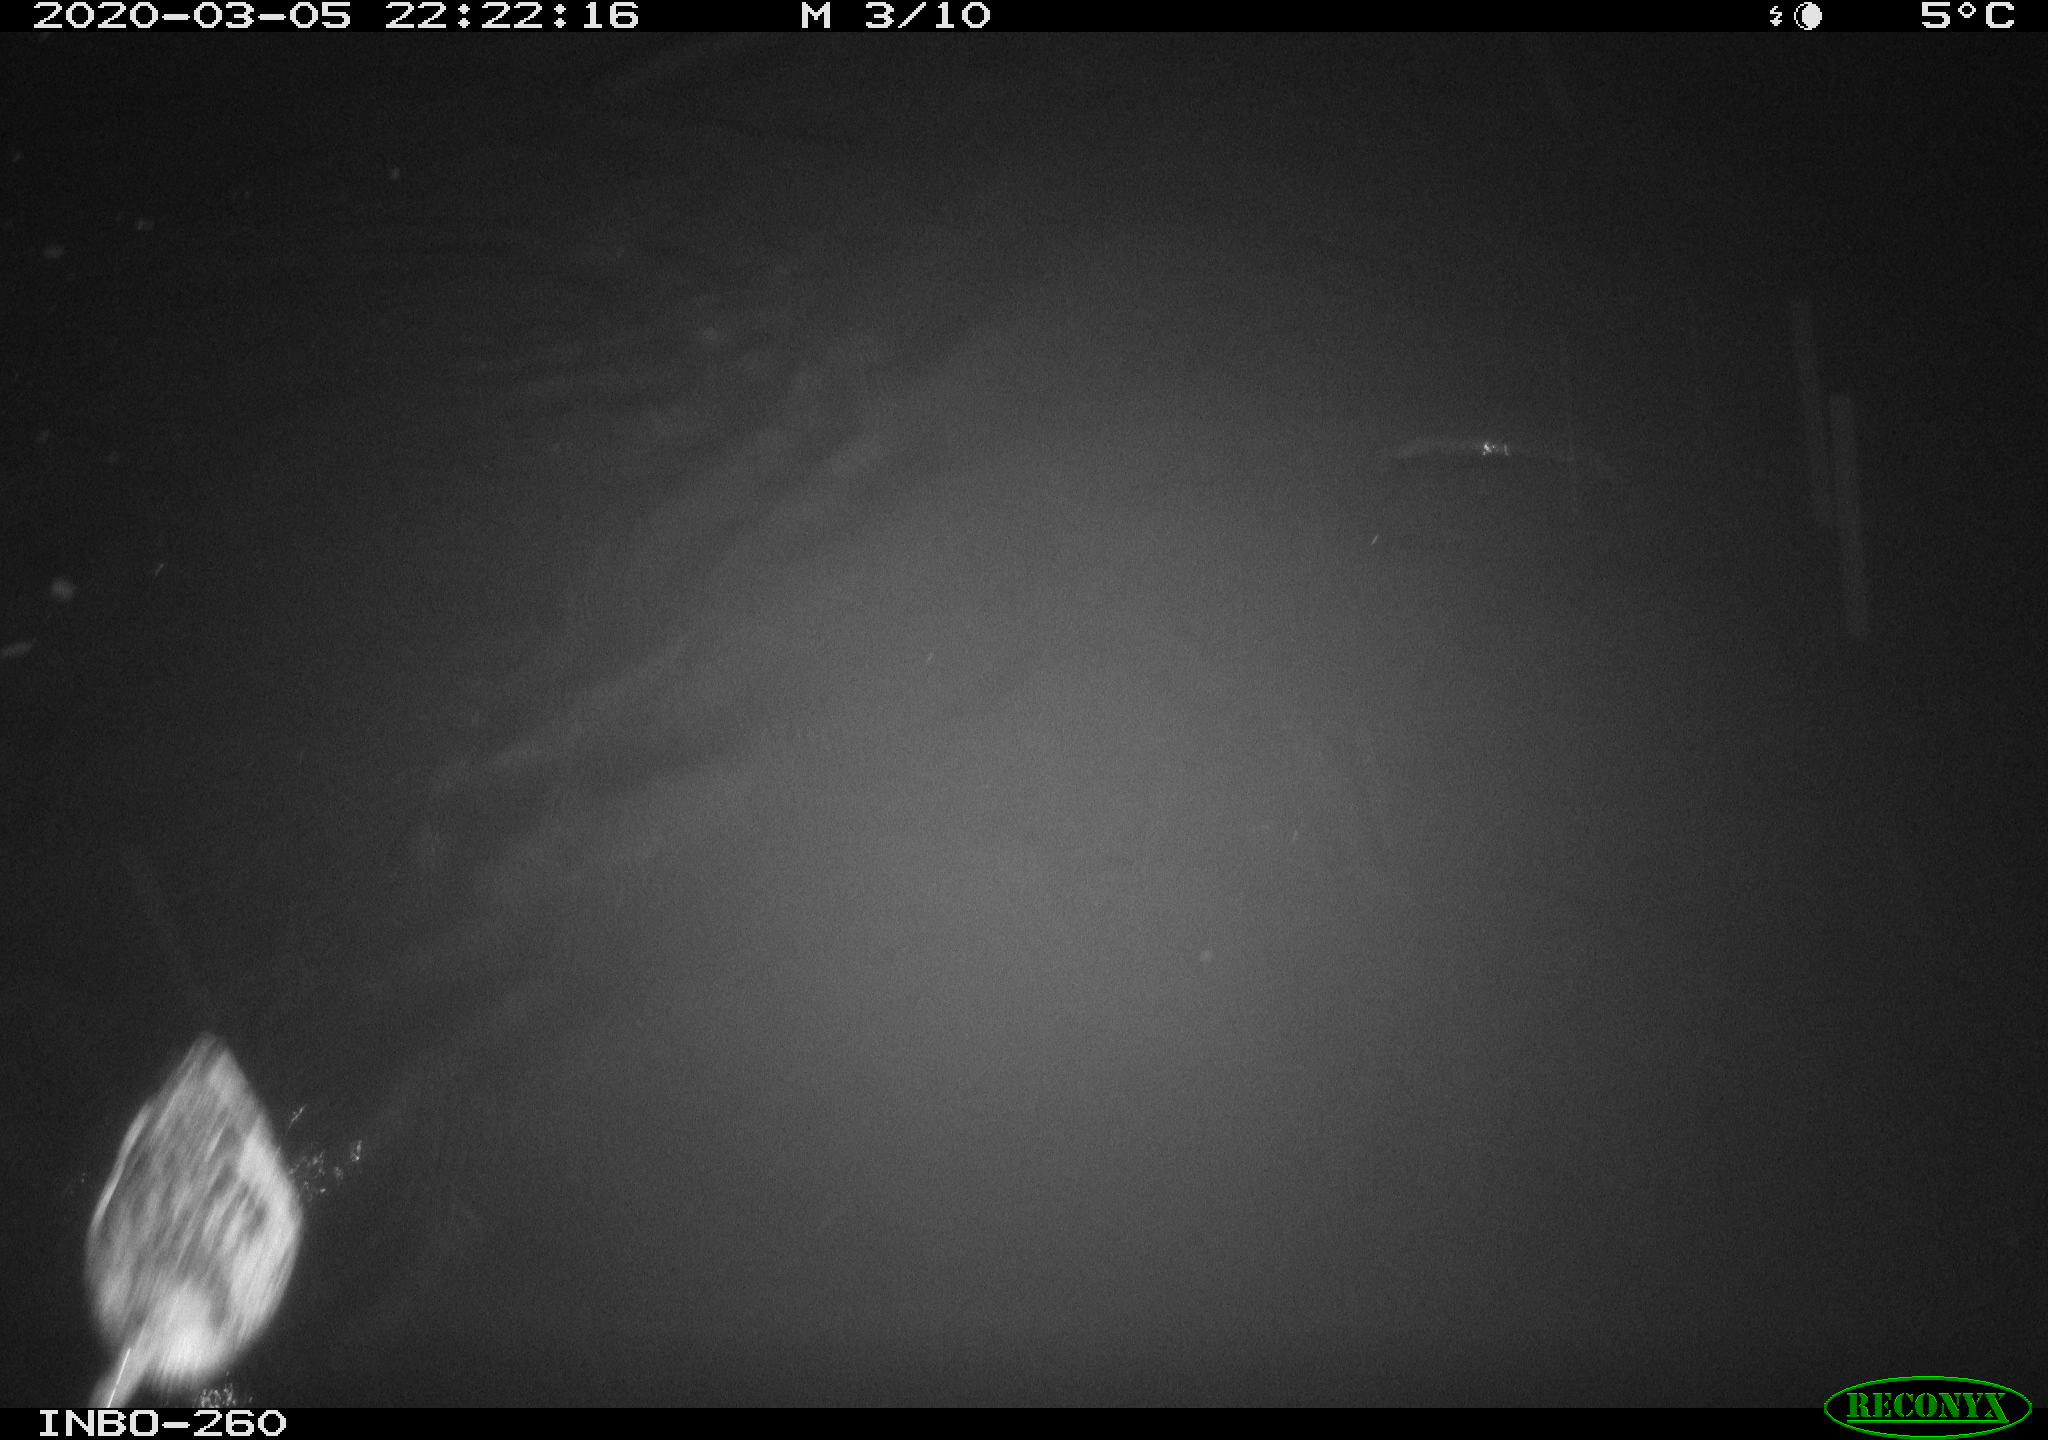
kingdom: Animalia
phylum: Chordata
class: Aves
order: Anseriformes
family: Anatidae
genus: Anas
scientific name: Anas platyrhynchos
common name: Mallard
